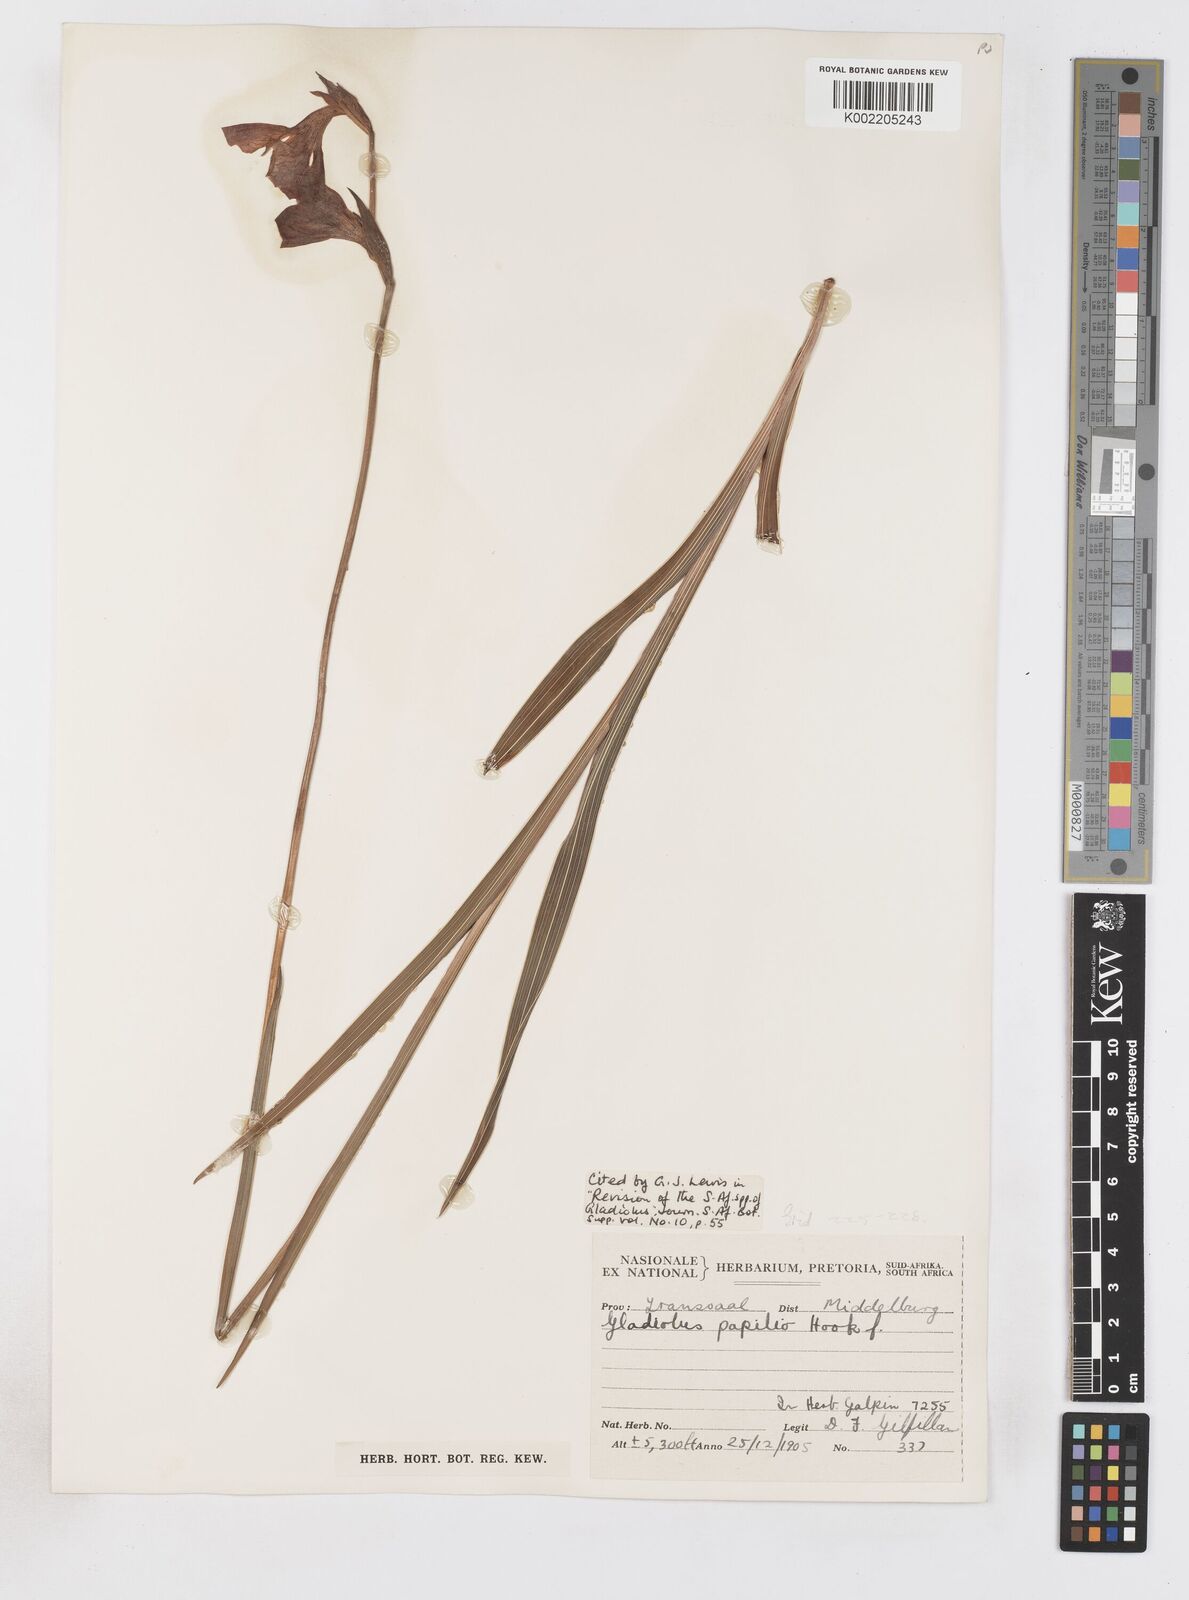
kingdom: Plantae
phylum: Tracheophyta
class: Liliopsida
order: Asparagales
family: Iridaceae
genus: Gladiolus
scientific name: Gladiolus papilio
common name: Goldblotch gladiolus
